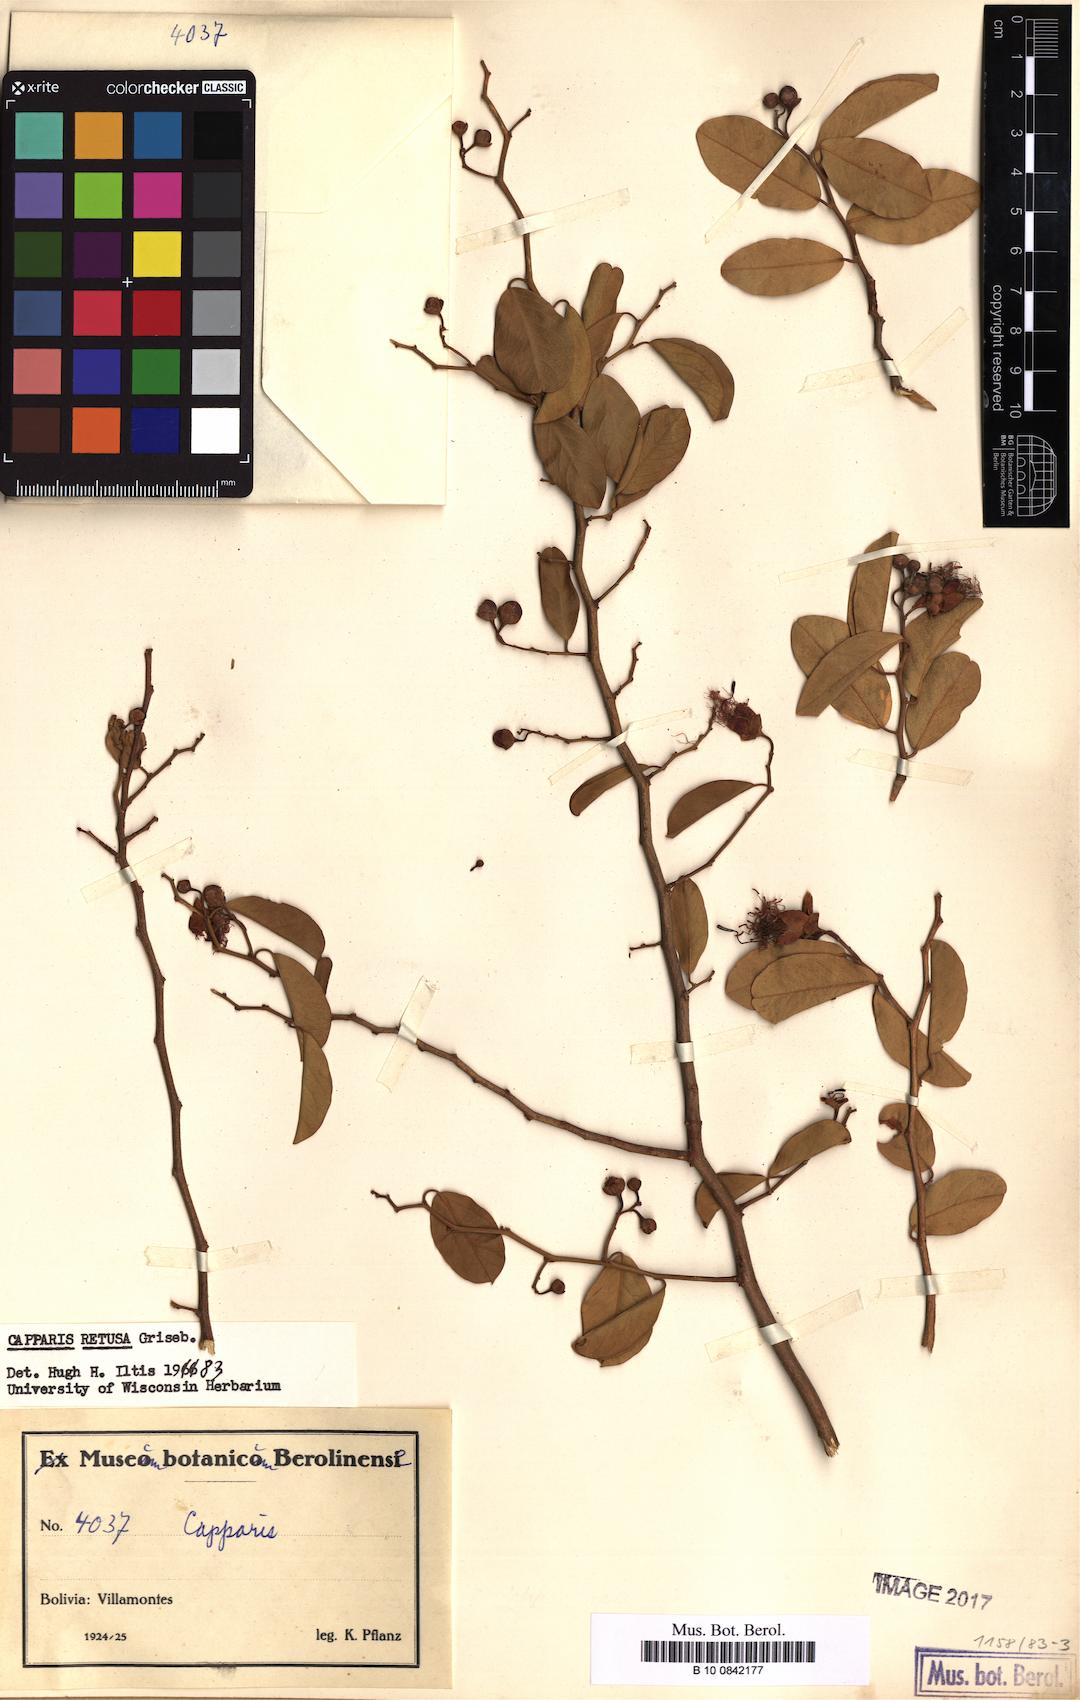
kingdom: Plantae
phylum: Tracheophyta
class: Magnoliopsida
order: Brassicales
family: Capparaceae
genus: Cynophalla
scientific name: Cynophalla retusa
